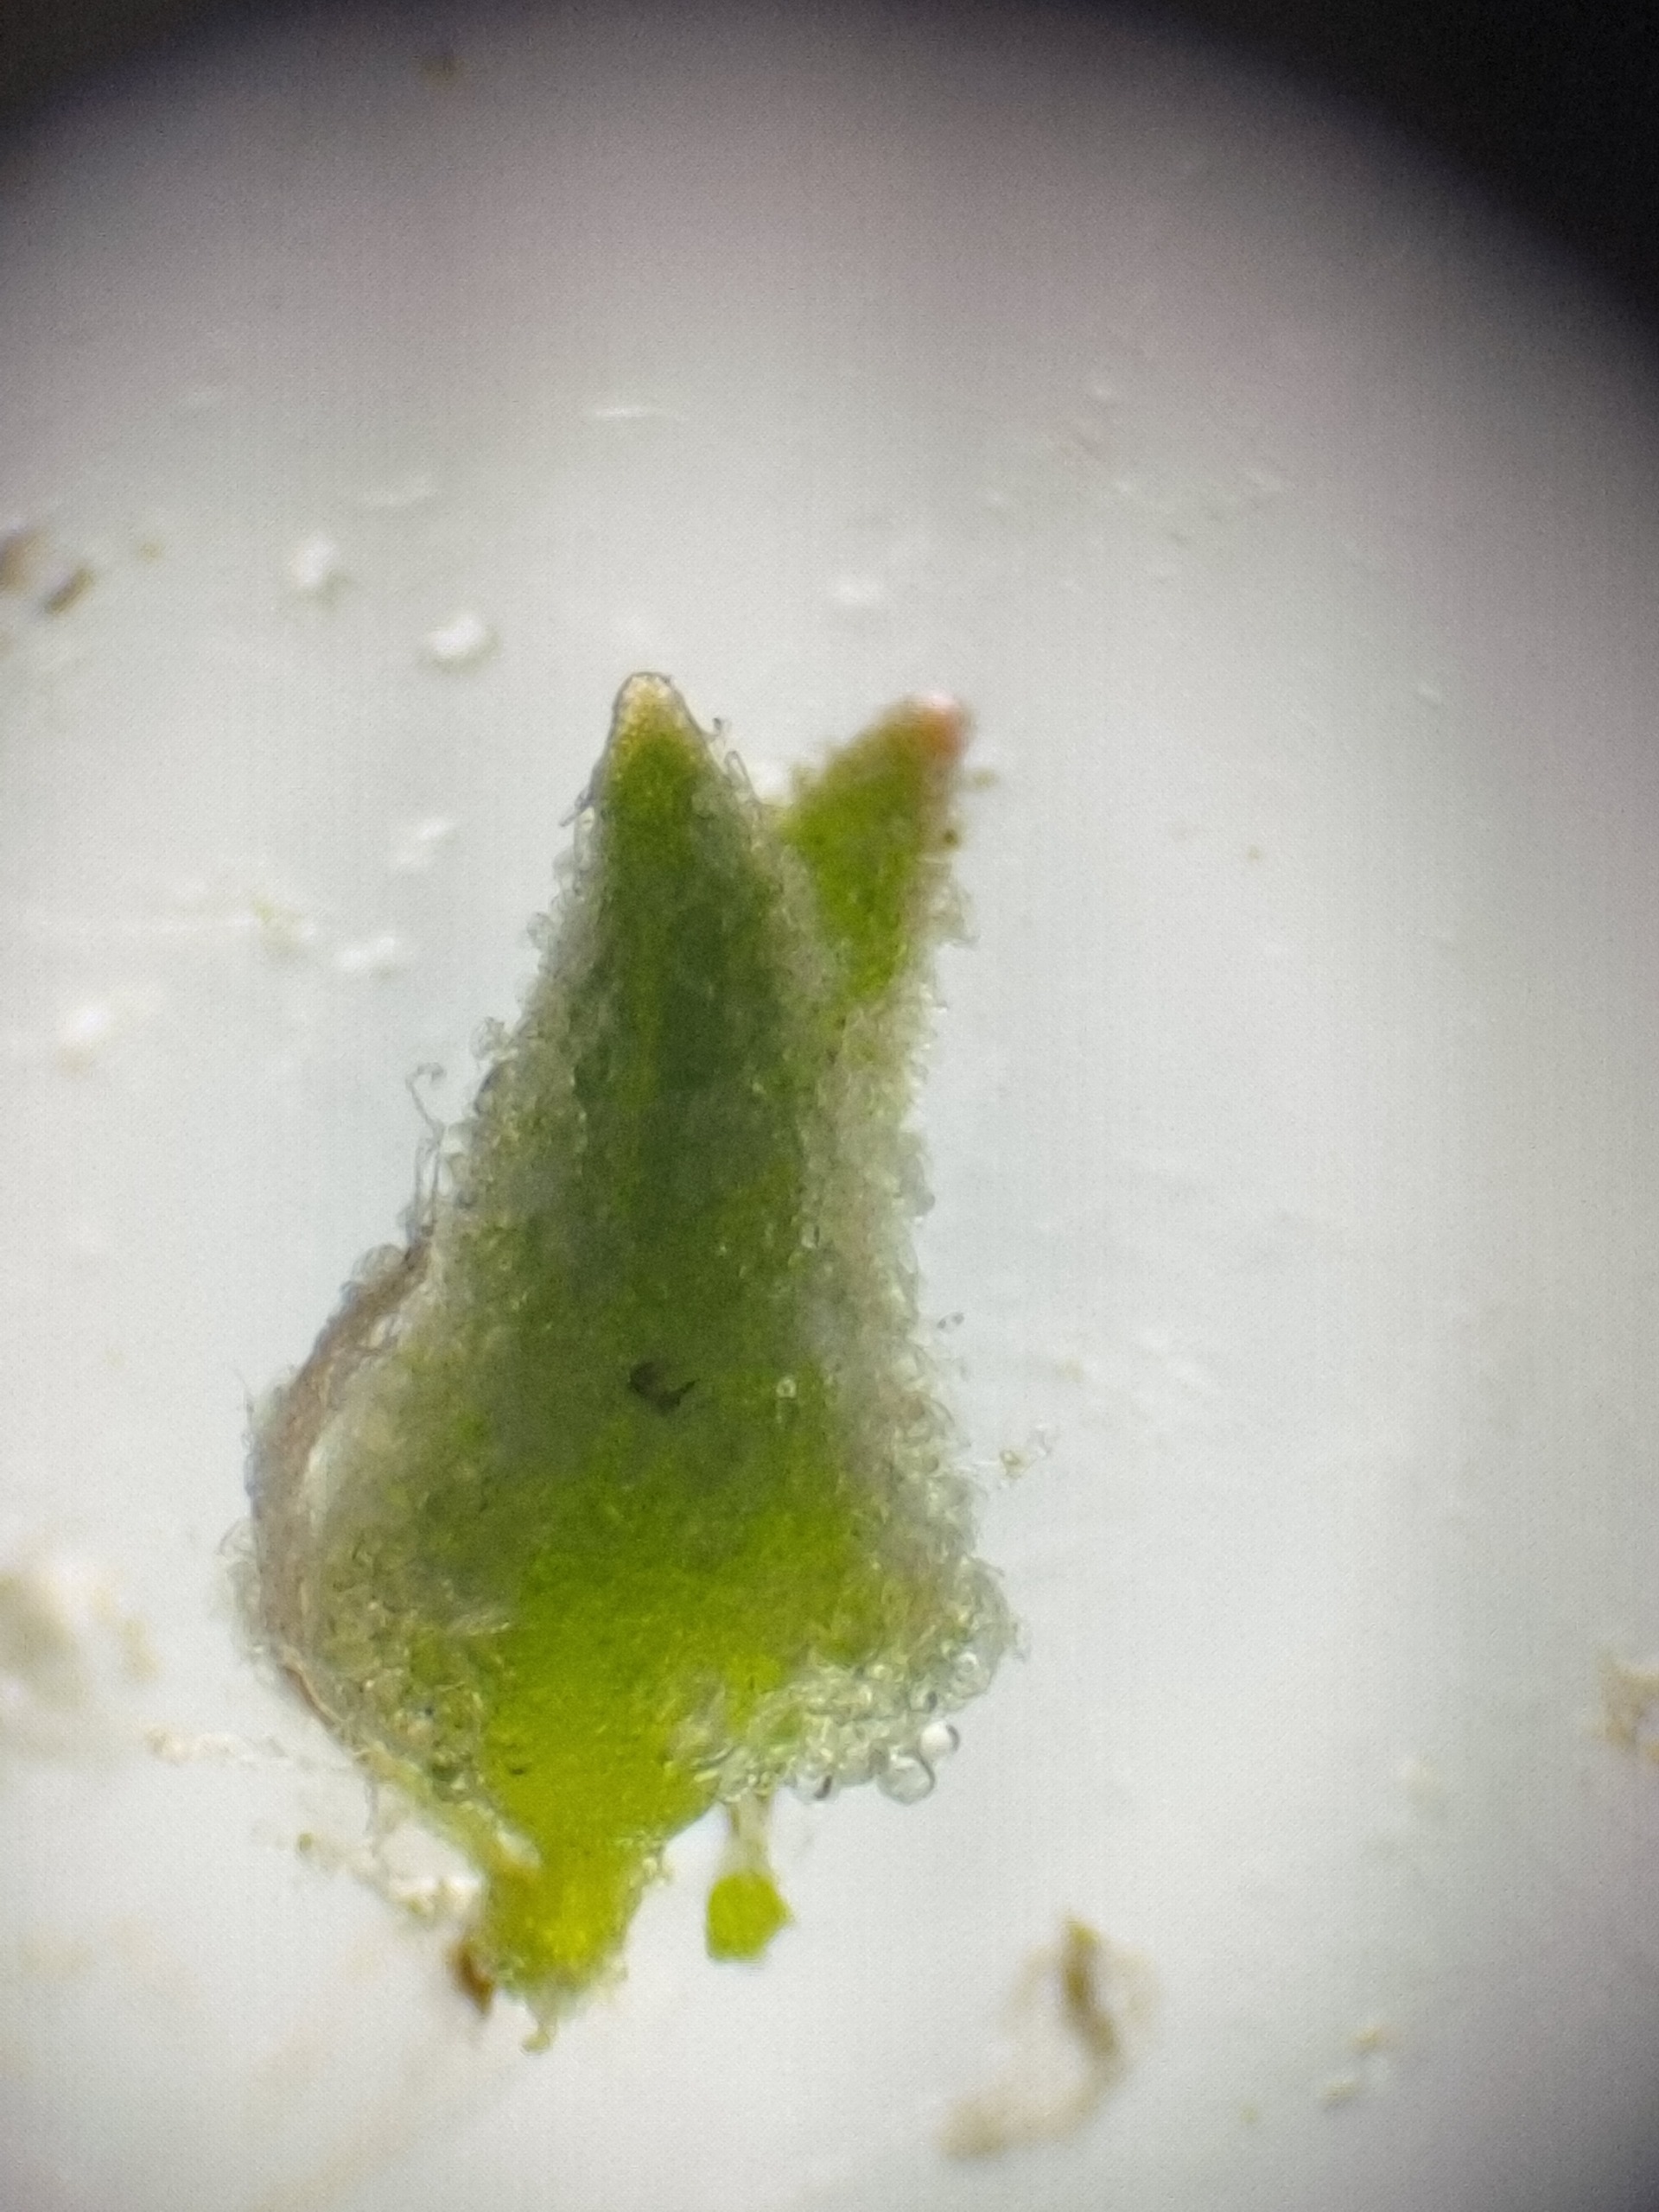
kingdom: Plantae
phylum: Tracheophyta
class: Magnoliopsida
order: Caryophyllales
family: Amaranthaceae
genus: Atriplex
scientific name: Atriplex patula
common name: Svine-mælde
